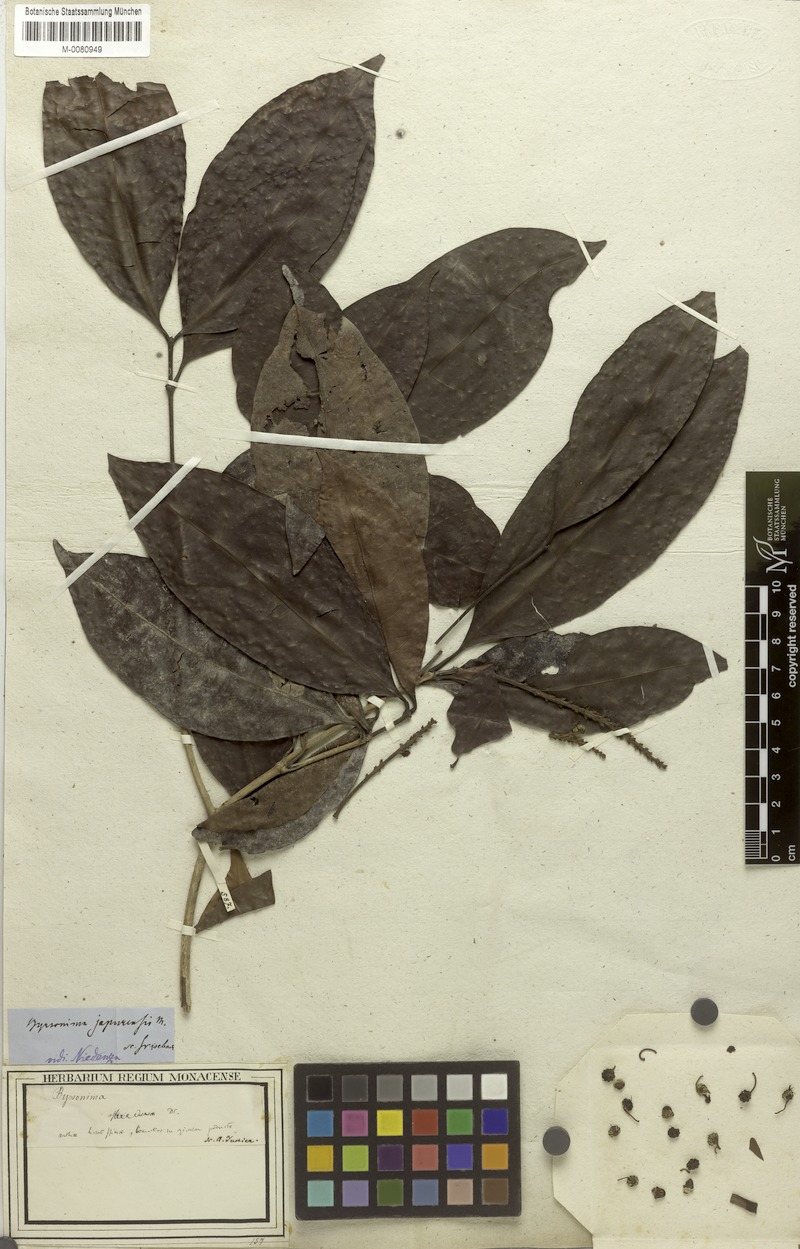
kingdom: Plantae
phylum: Tracheophyta
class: Magnoliopsida
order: Malpighiales
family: Malpighiaceae
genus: Byrsonima
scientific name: Byrsonima japurensis
